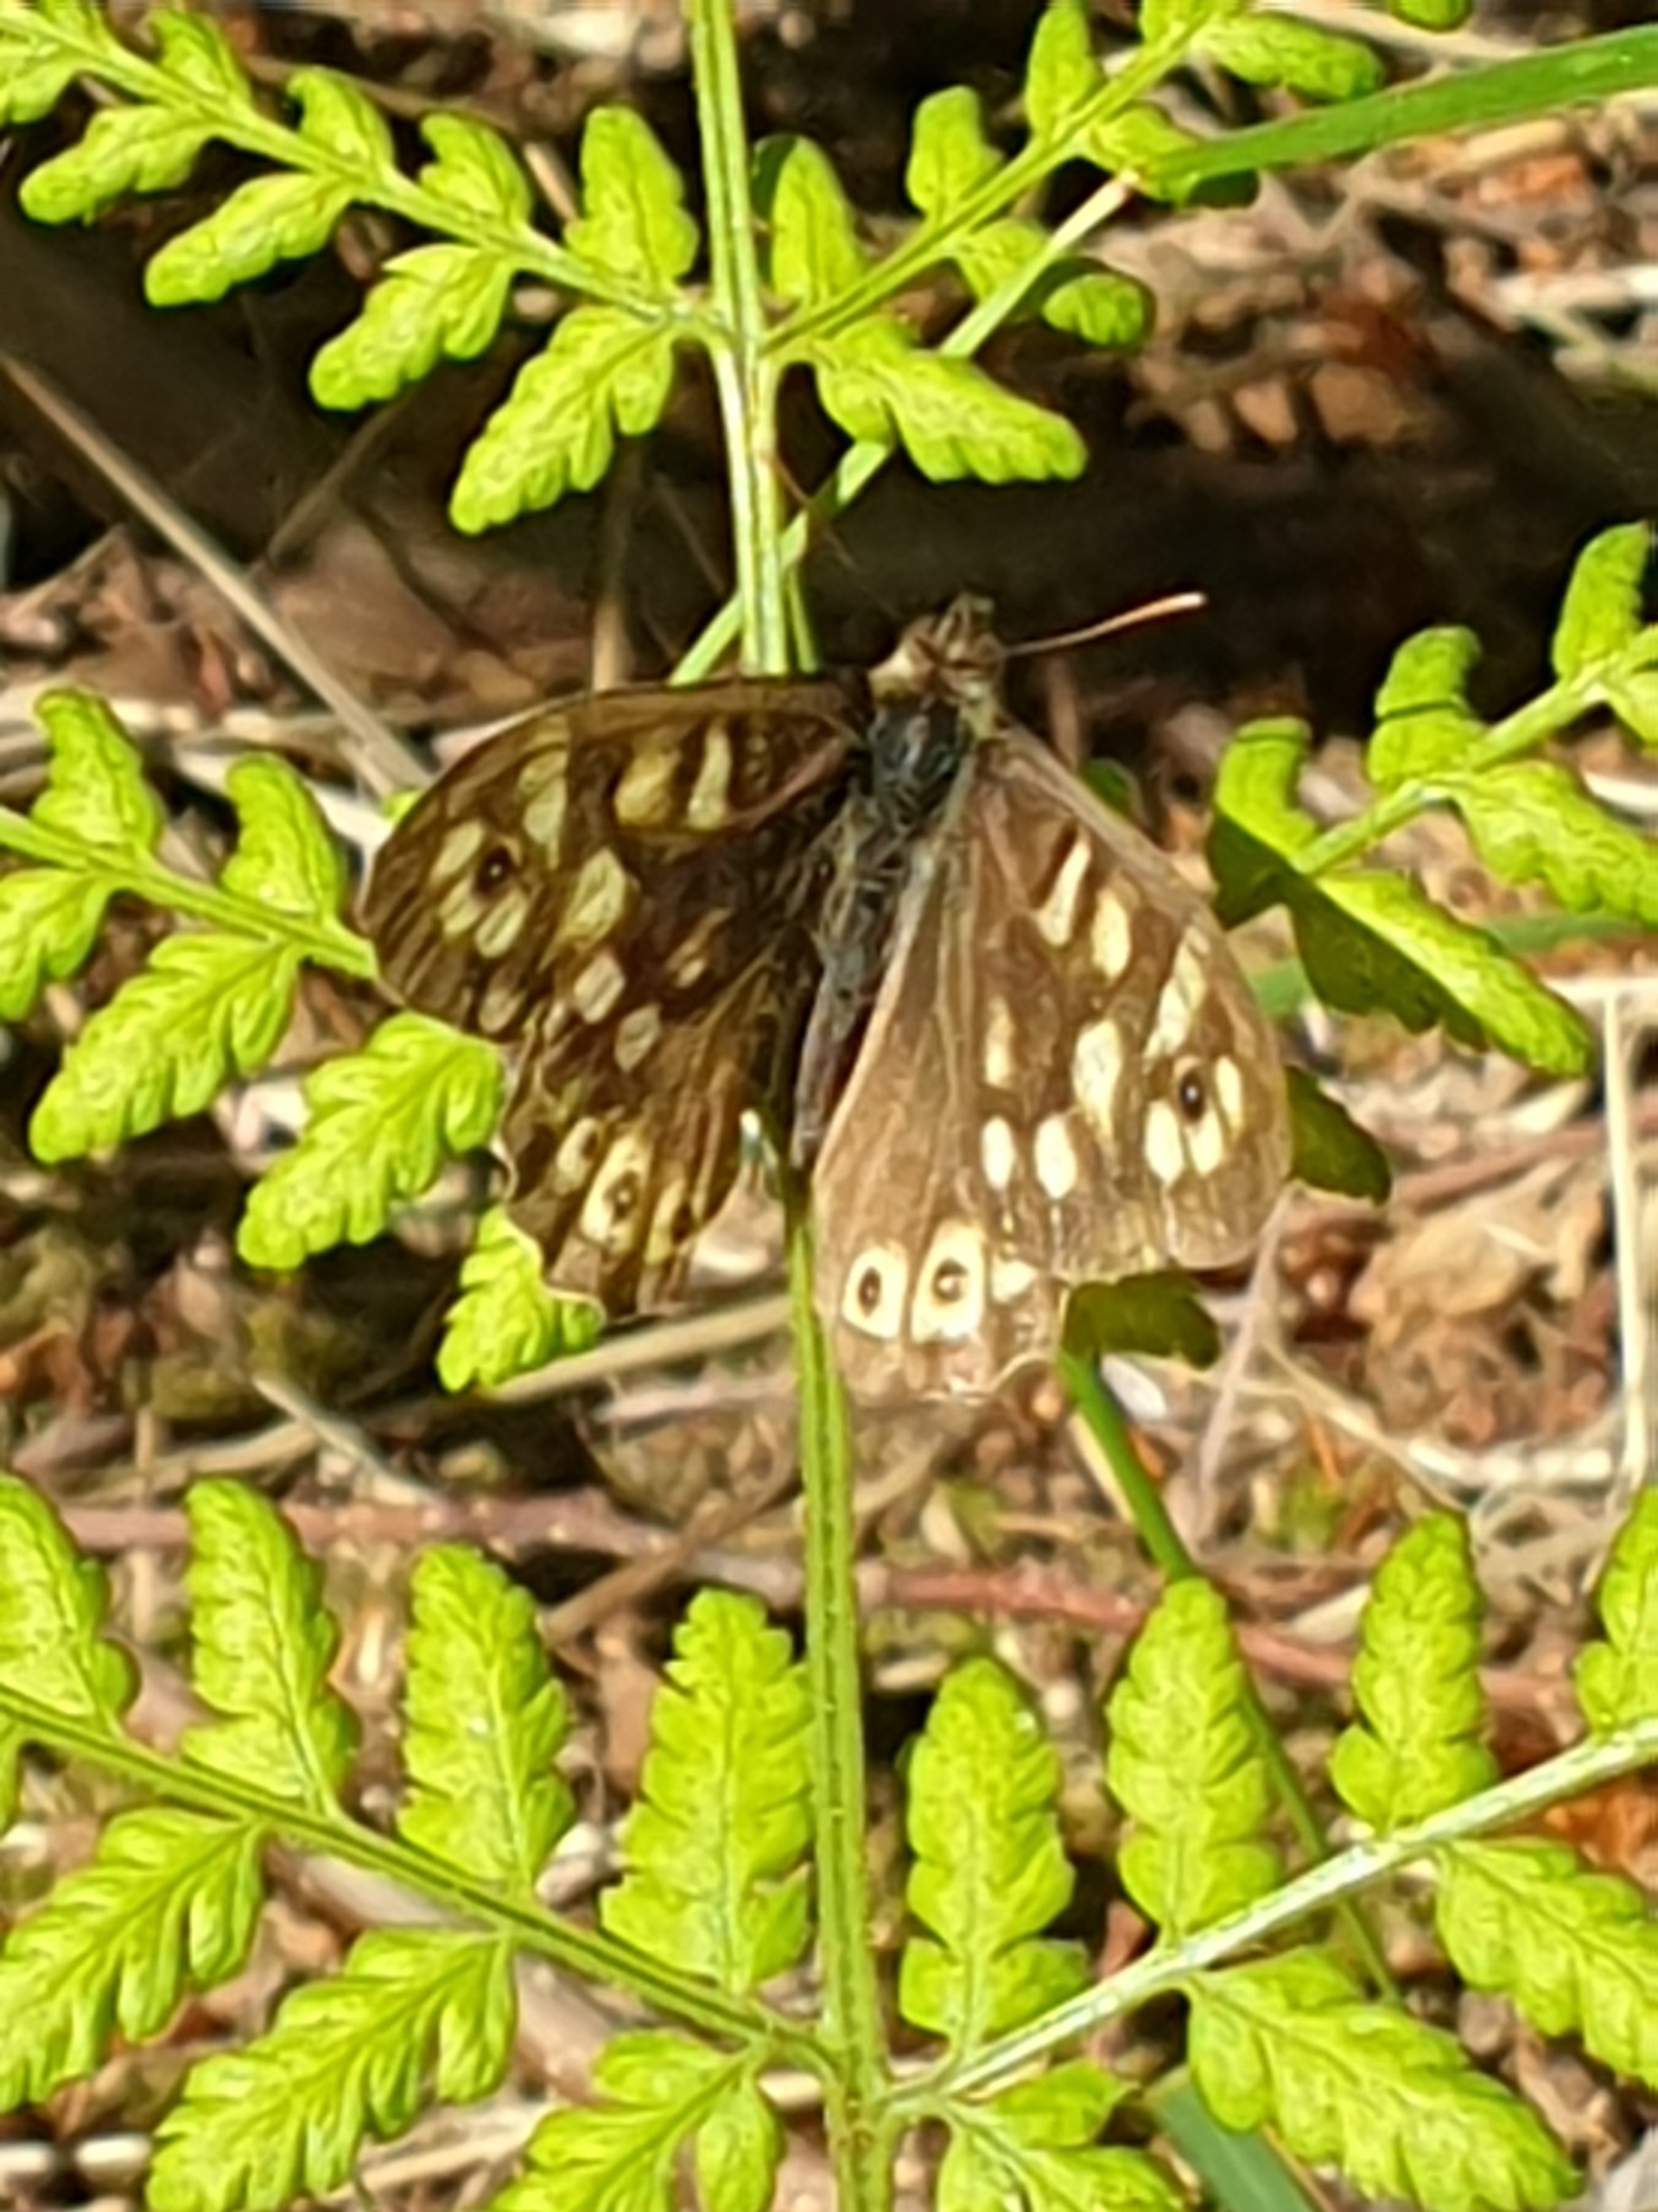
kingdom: Animalia
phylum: Arthropoda
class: Insecta
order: Lepidoptera
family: Nymphalidae
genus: Pararge
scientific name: Pararge aegeria
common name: Skovrandøje
